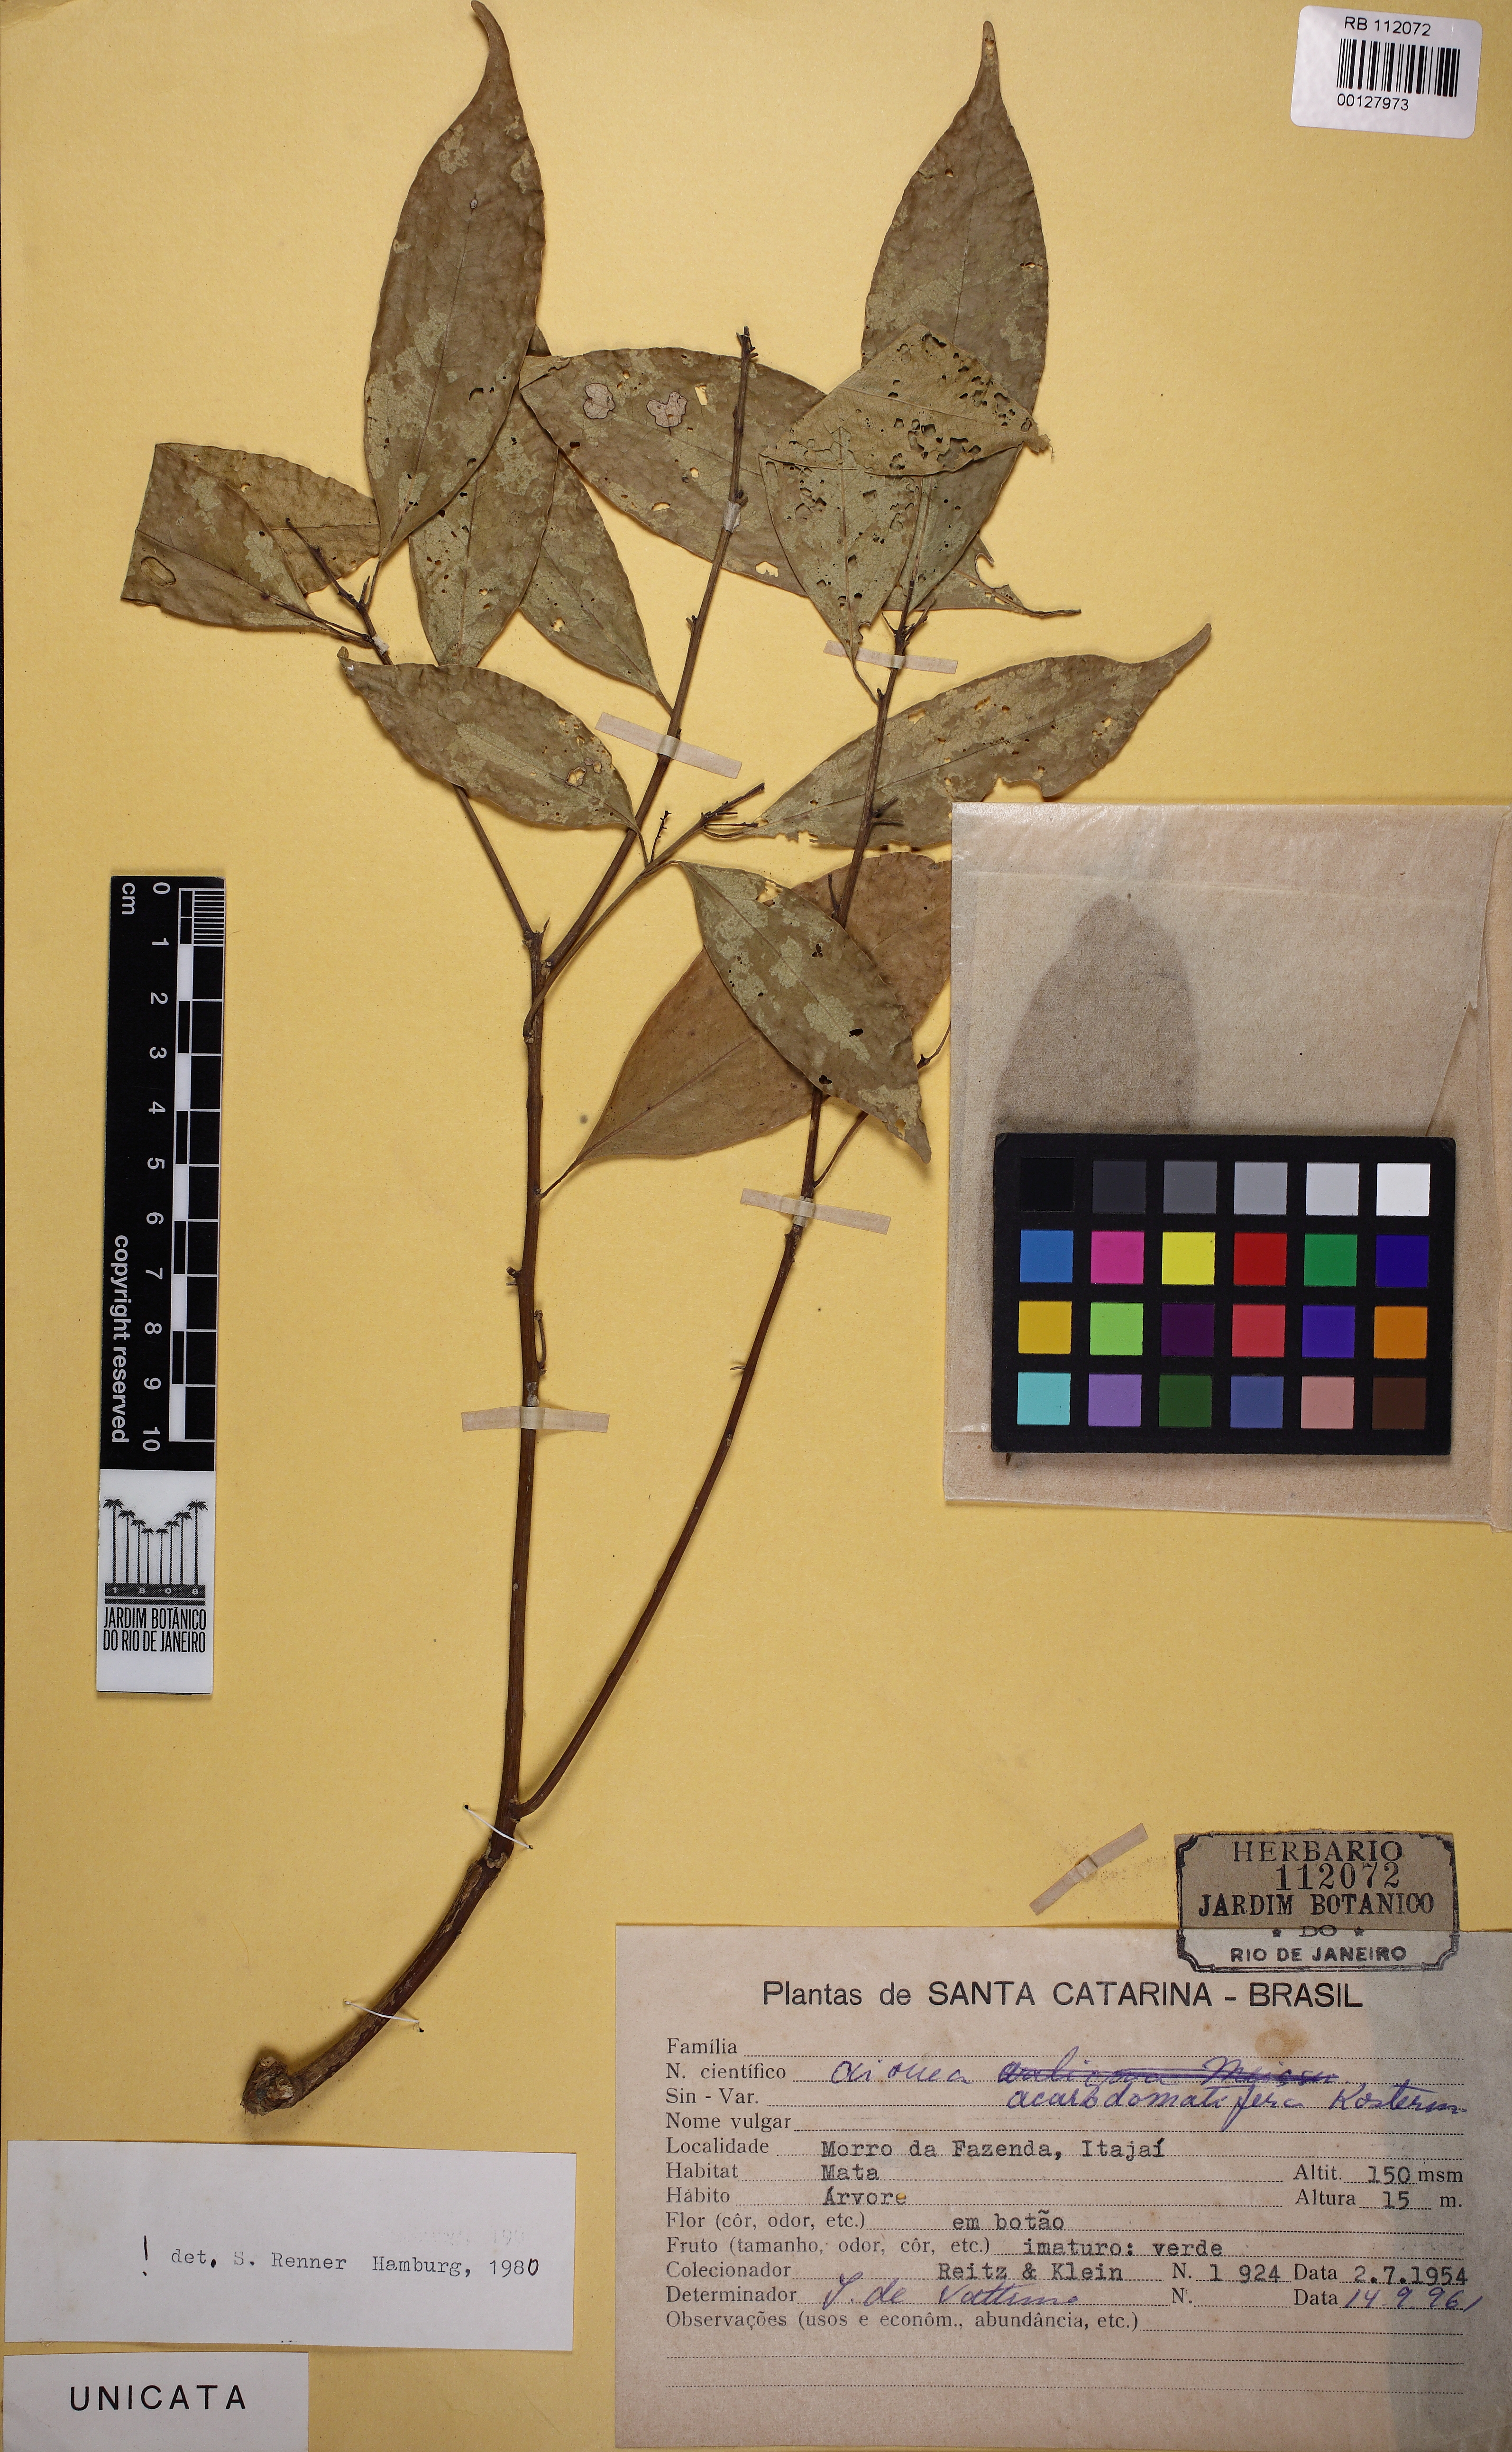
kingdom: Plantae
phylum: Tracheophyta
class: Magnoliopsida
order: Laurales
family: Lauraceae
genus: Aiouea
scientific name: Aiouea acarodomatifera
